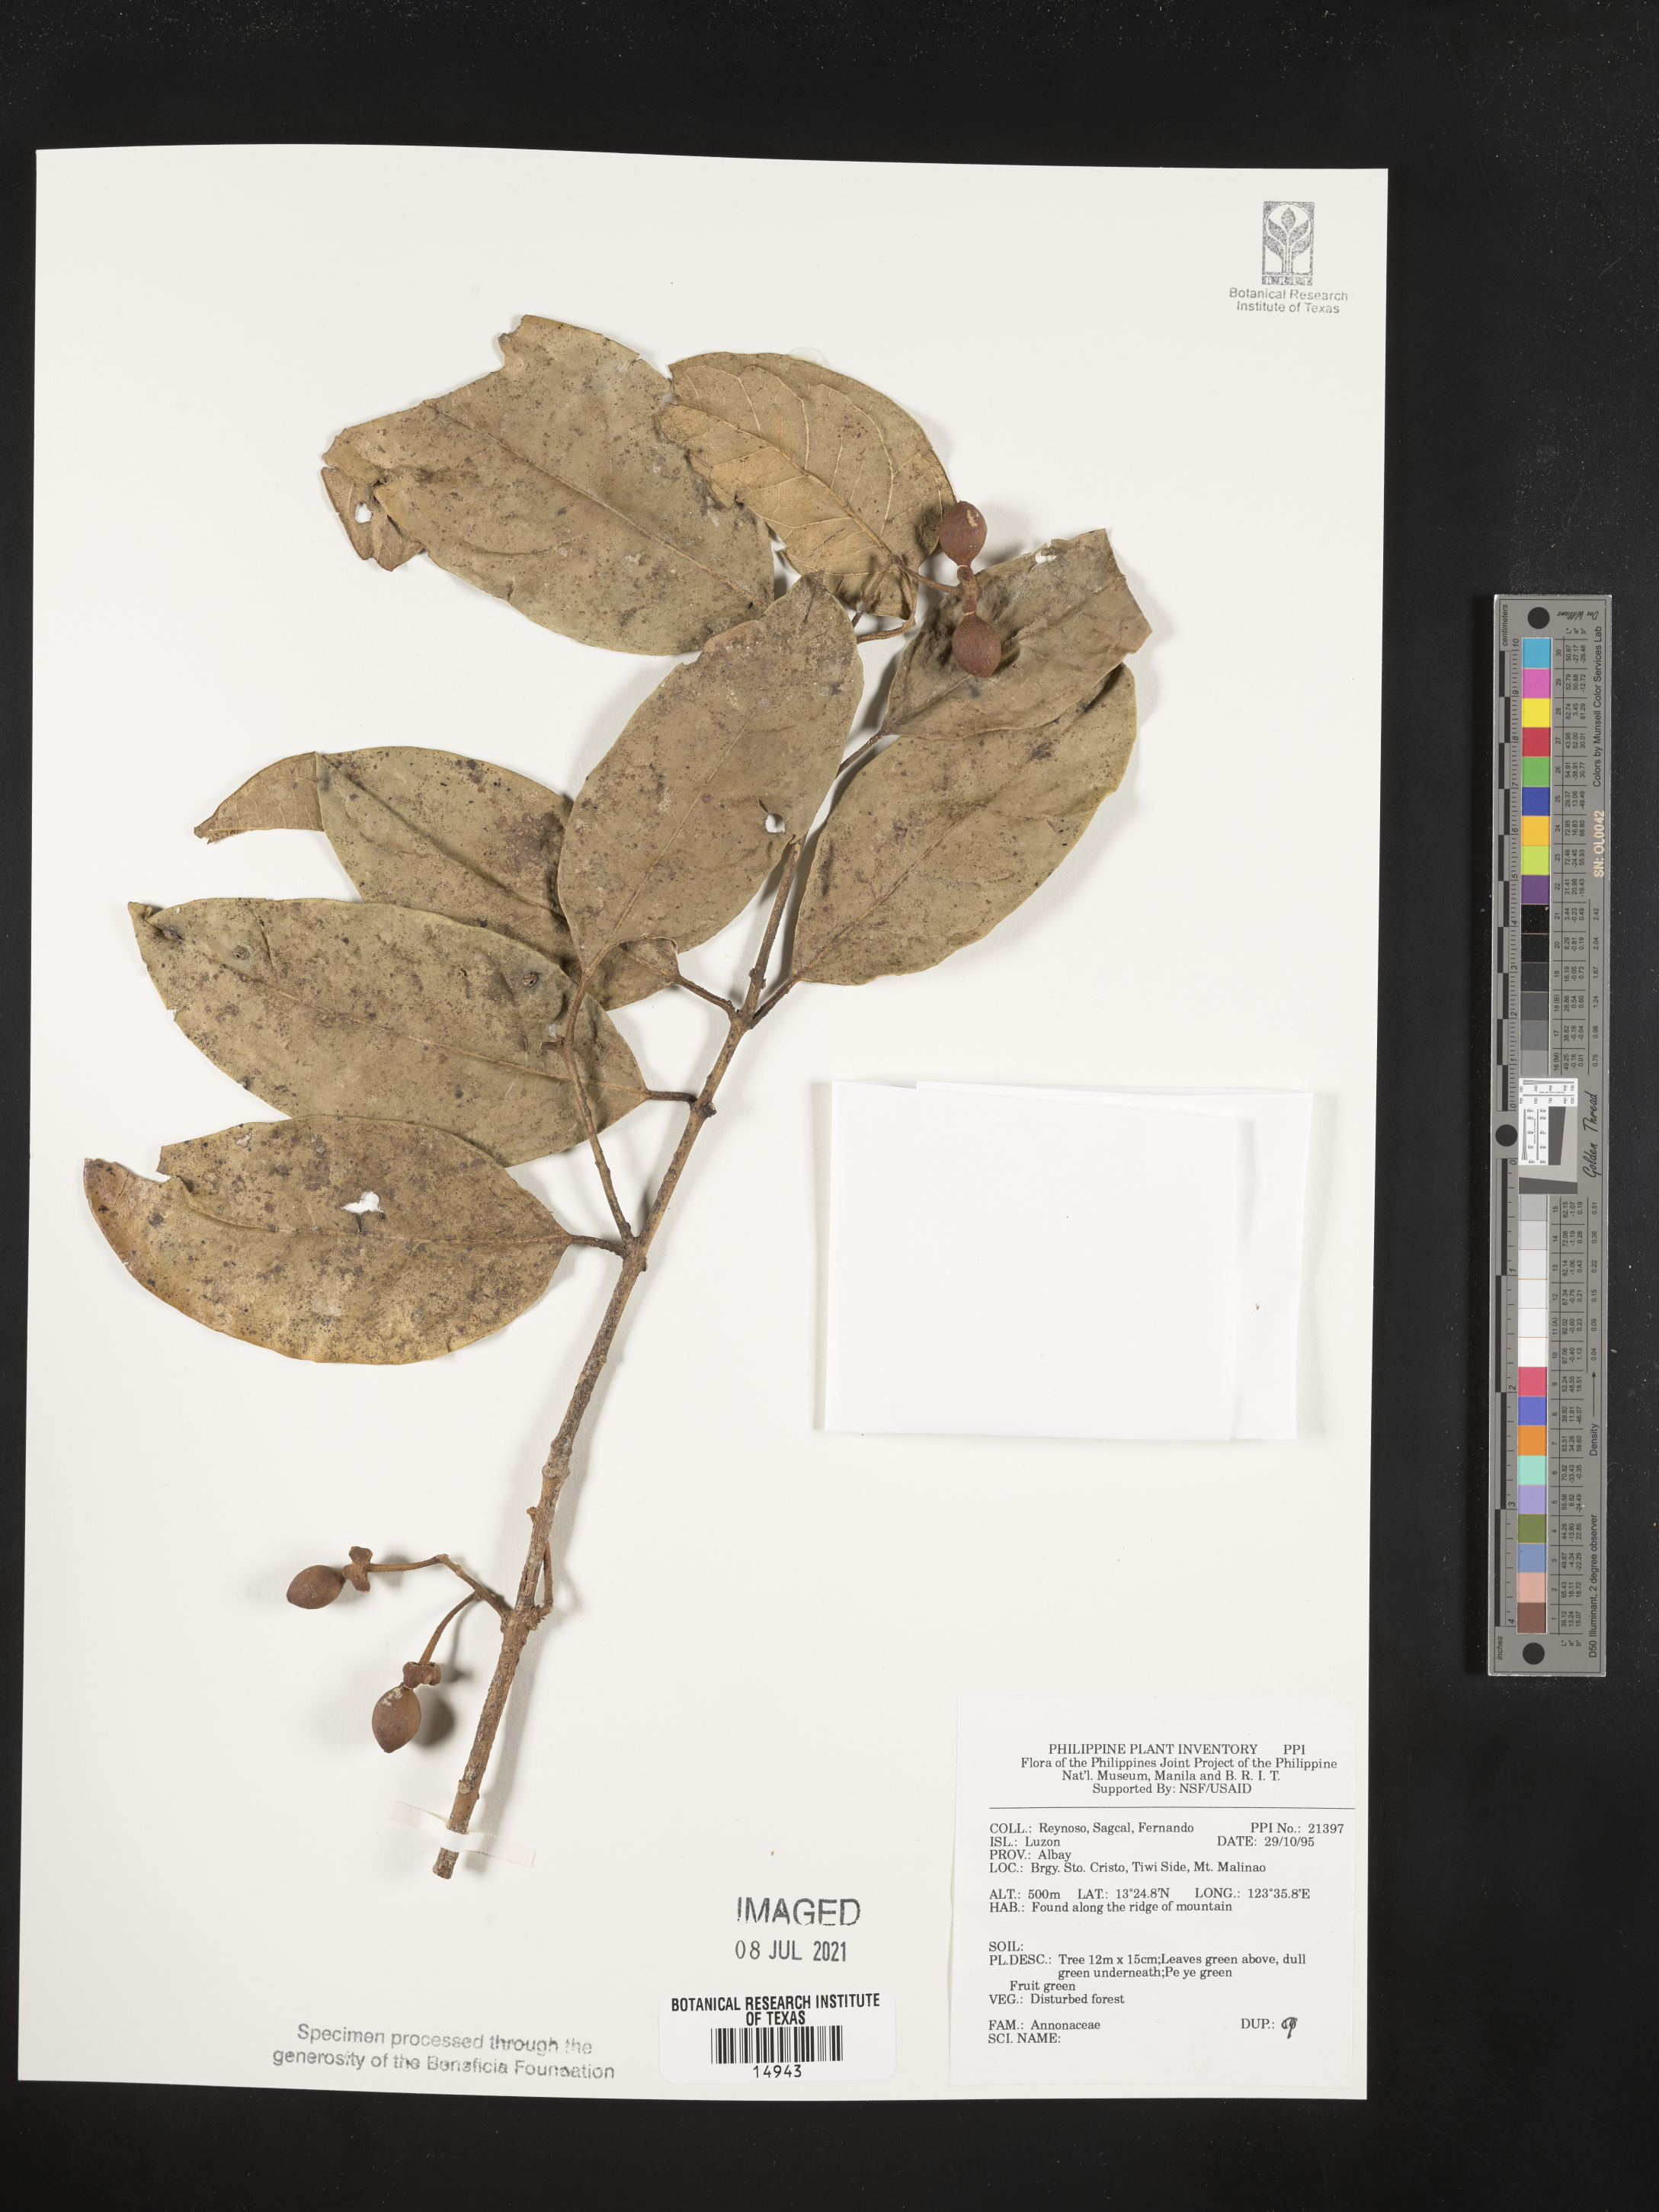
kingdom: Plantae
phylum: Tracheophyta
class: Magnoliopsida
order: Magnoliales
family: Annonaceae
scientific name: Annonaceae
